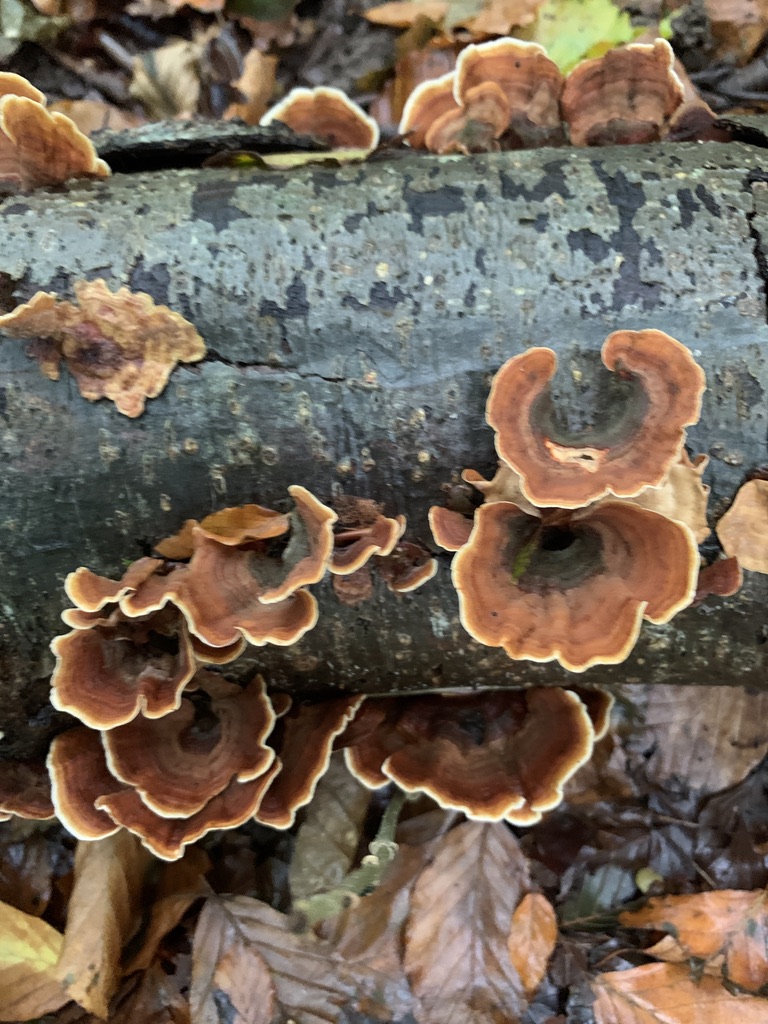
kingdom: Fungi
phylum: Basidiomycota
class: Agaricomycetes
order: Russulales
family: Stereaceae
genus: Stereum
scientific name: Stereum hirsutum
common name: håret lædersvamp
